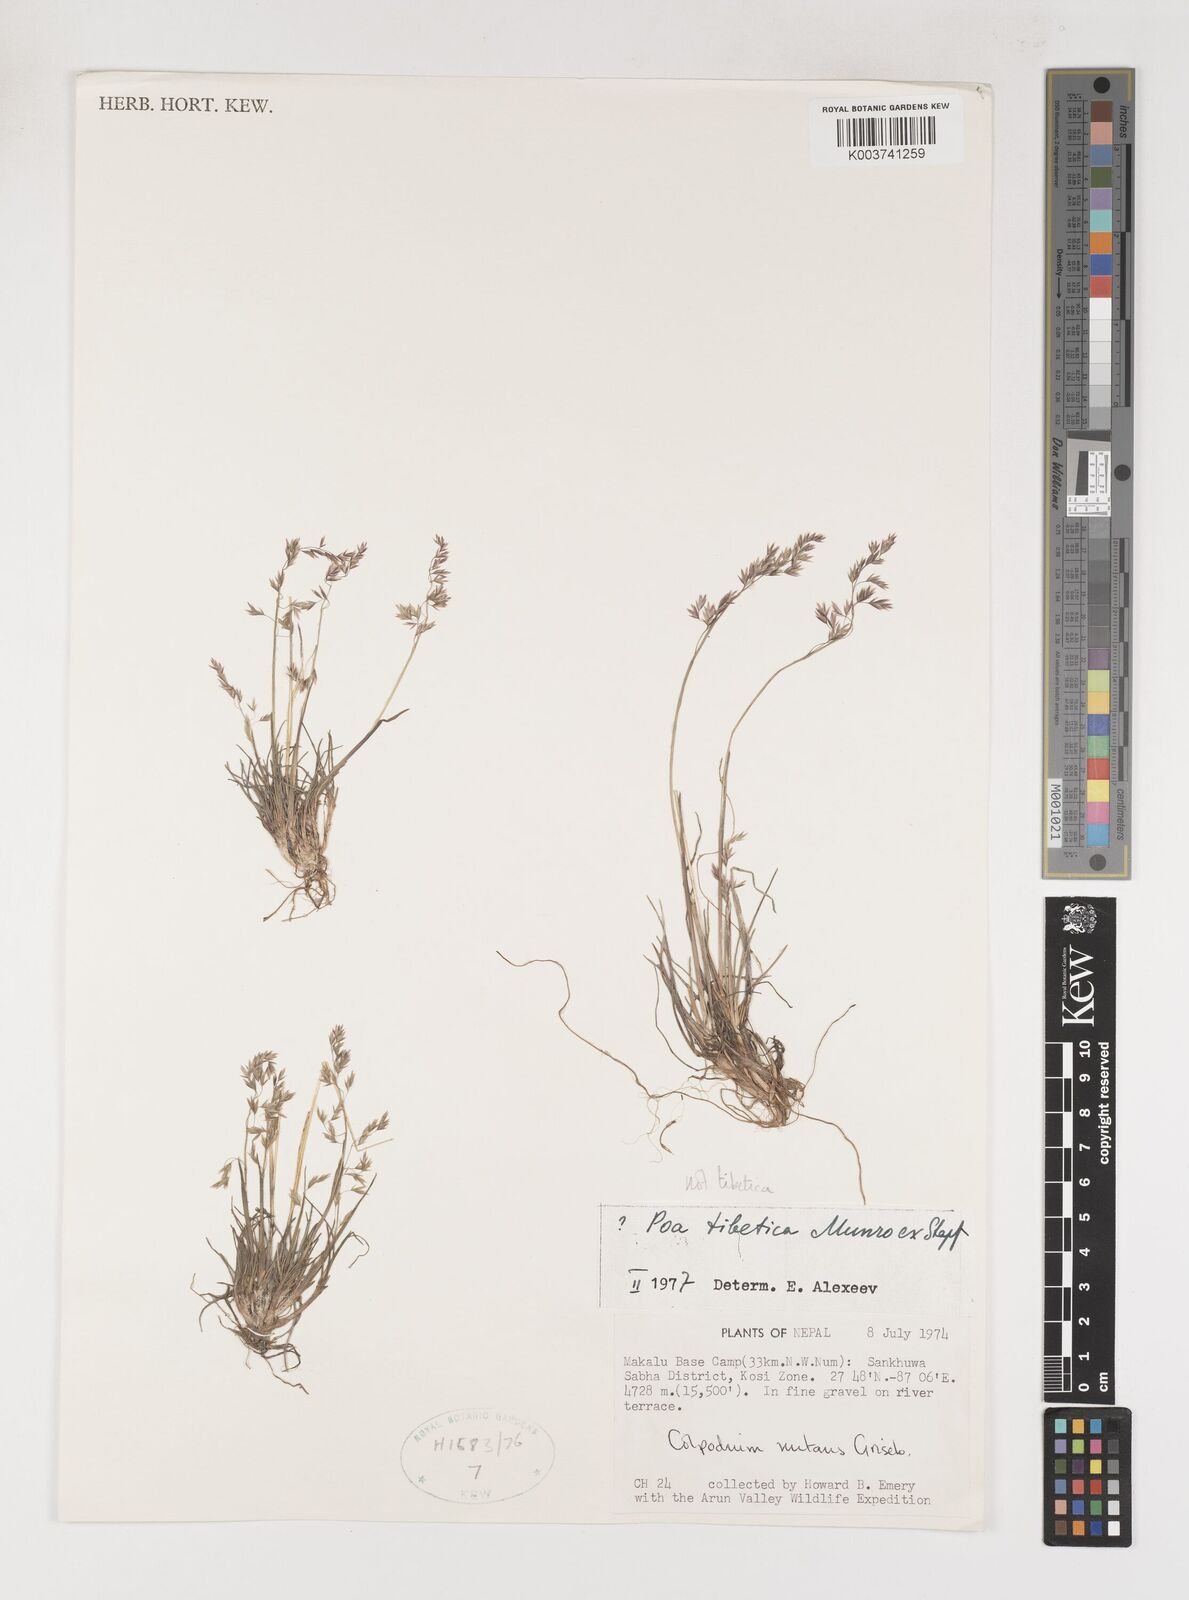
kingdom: Plantae
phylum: Tracheophyta
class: Liliopsida
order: Poales
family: Poaceae
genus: Poa
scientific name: Poa
